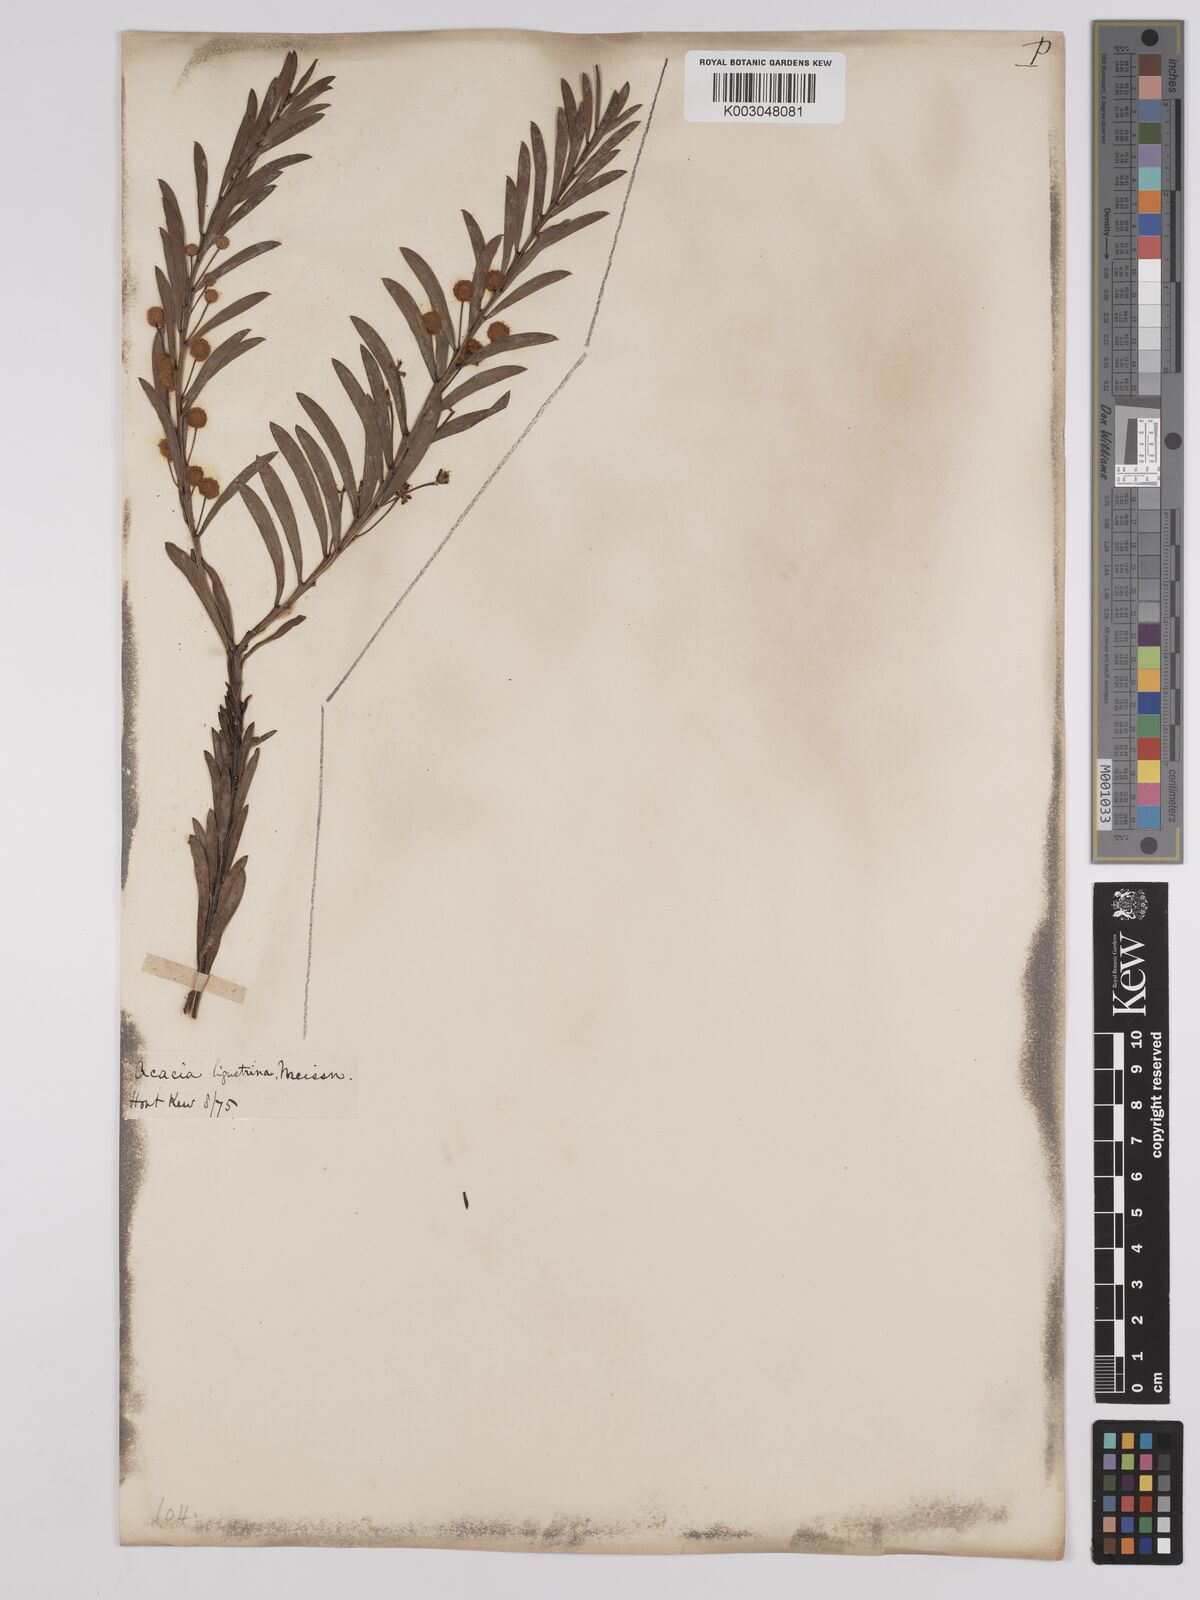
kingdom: Plantae
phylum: Tracheophyta
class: Magnoliopsida
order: Fabales
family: Fabaceae
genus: Acacia
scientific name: Acacia ligustrina
